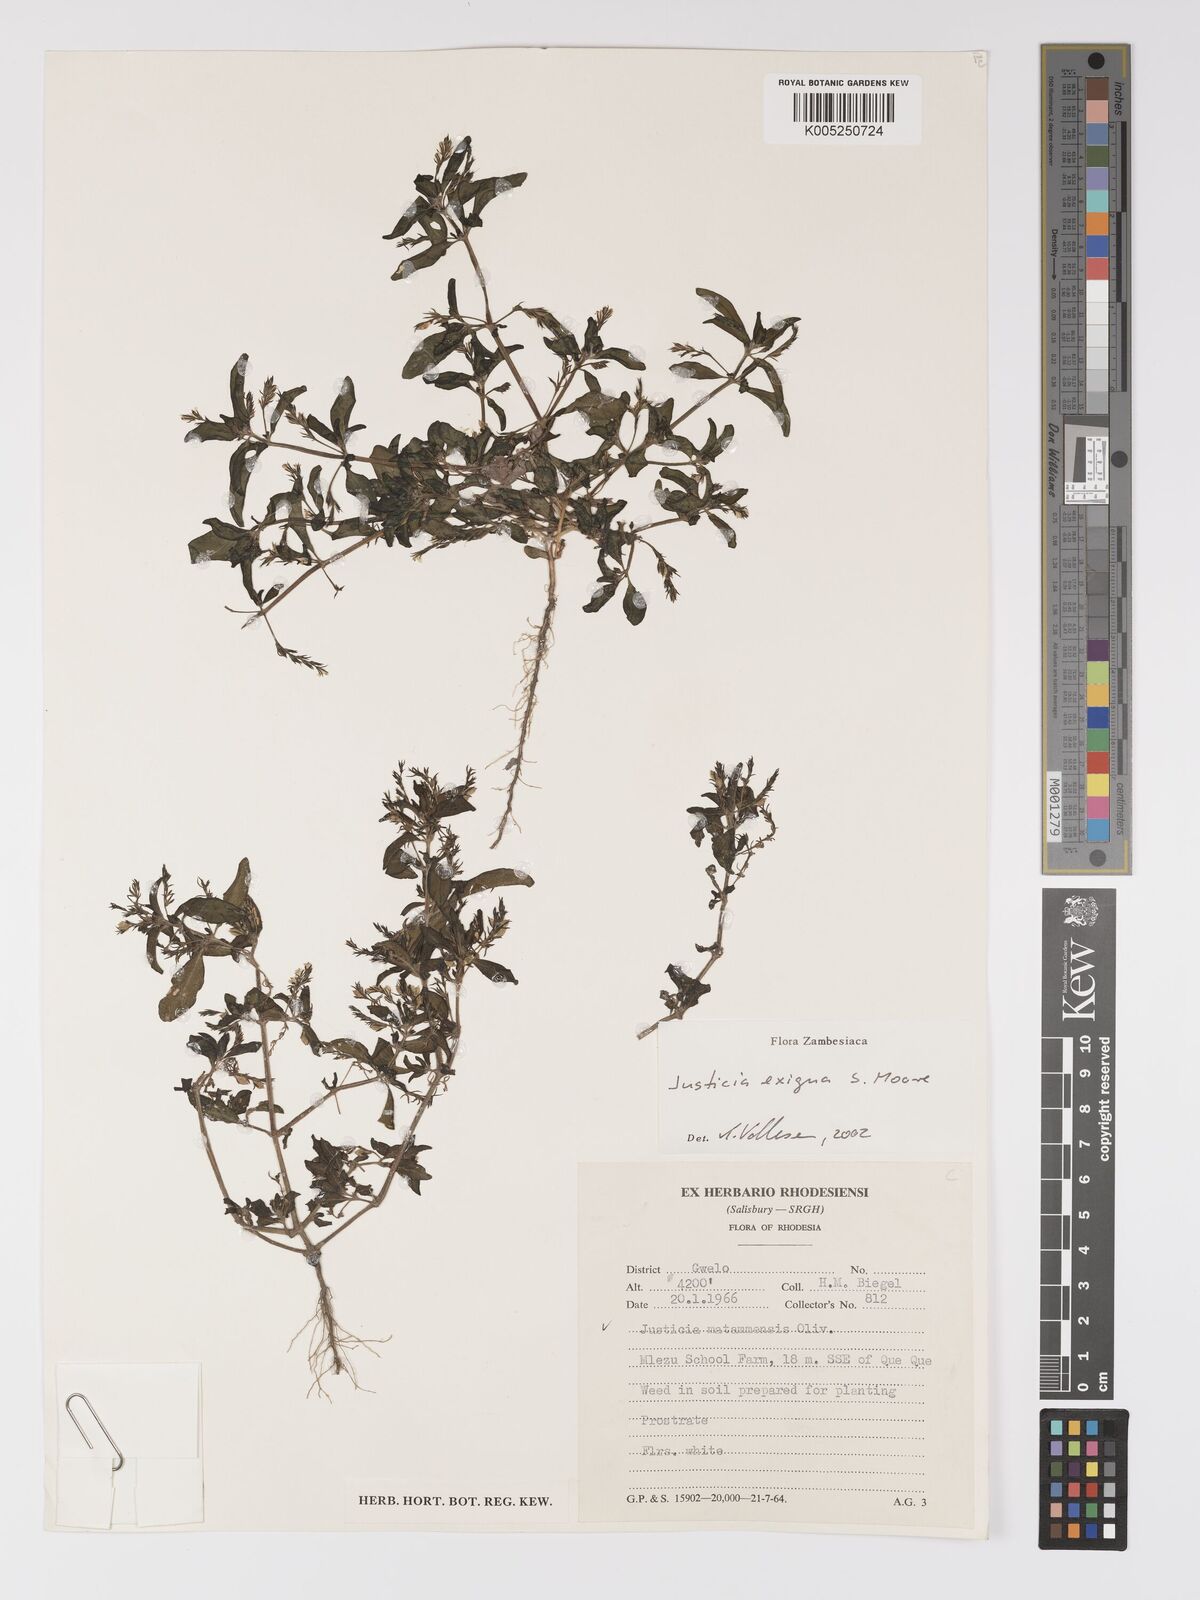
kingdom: Plantae
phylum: Tracheophyta
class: Magnoliopsida
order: Lamiales
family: Acanthaceae
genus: Justicia
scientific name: Justicia exigua
